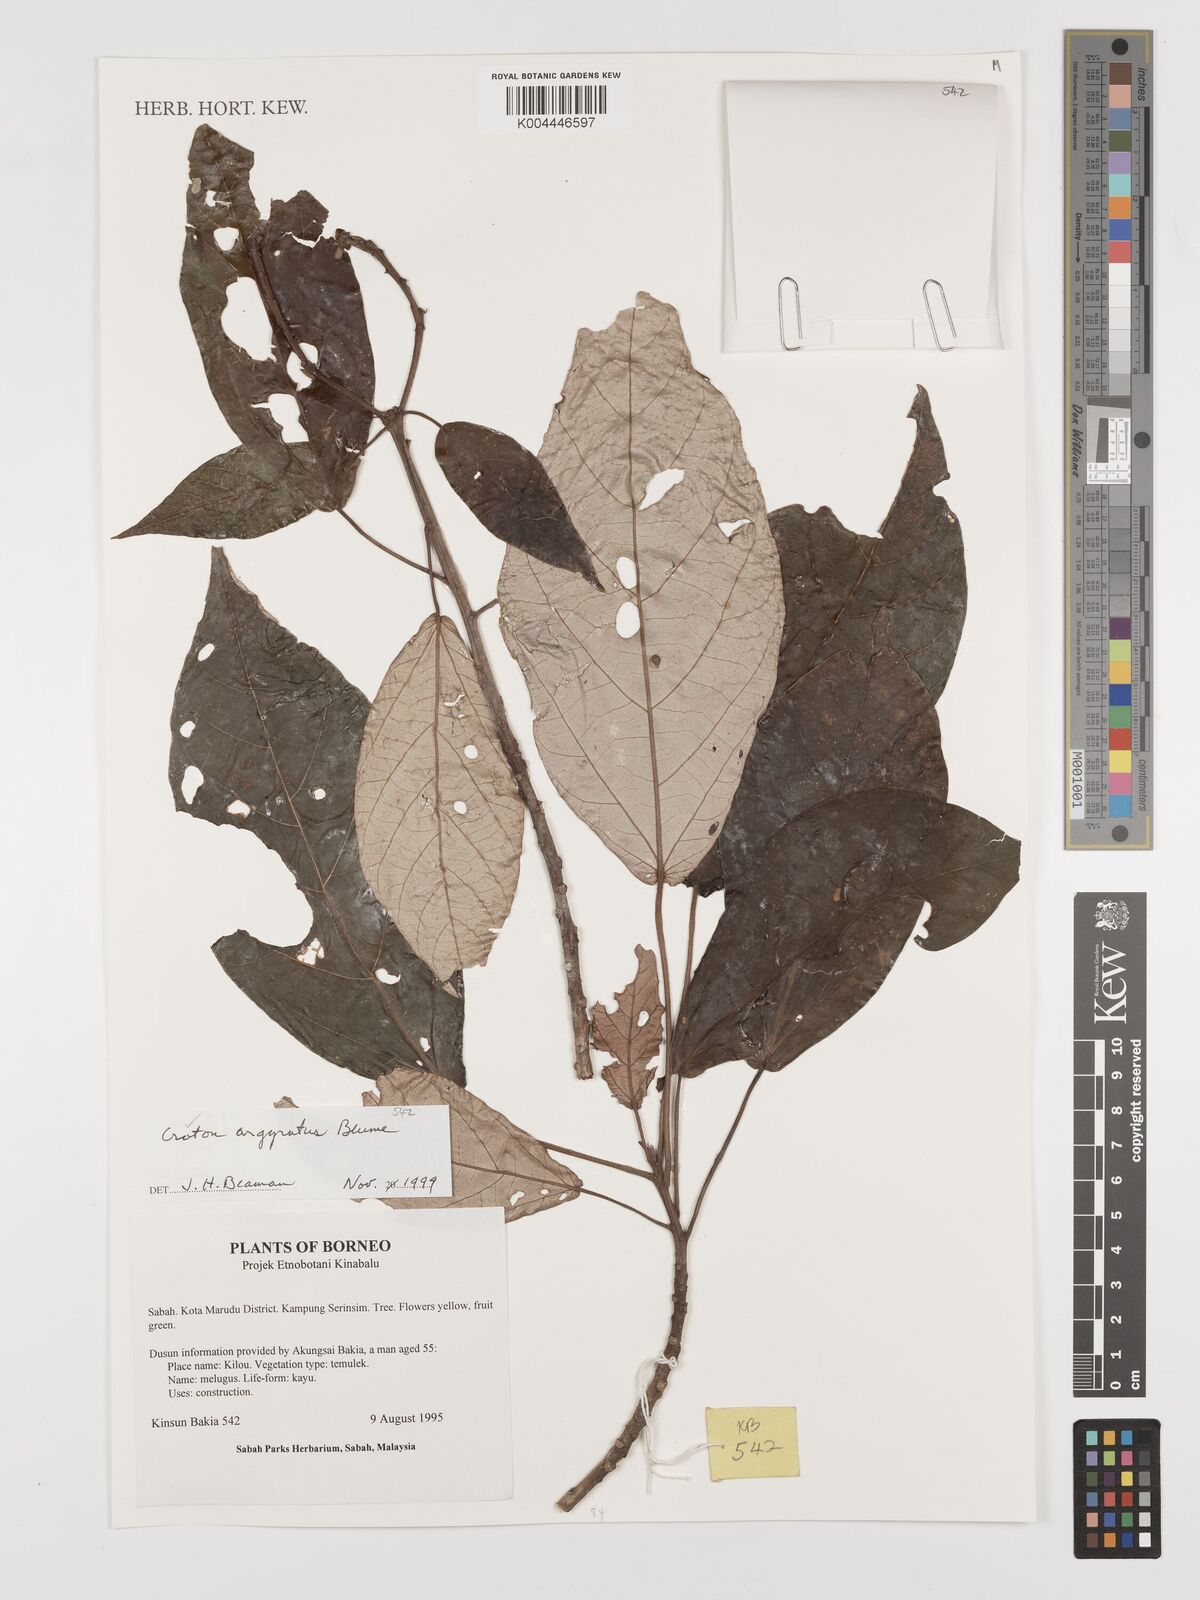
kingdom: Plantae
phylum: Tracheophyta
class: Magnoliopsida
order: Malpighiales
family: Euphorbiaceae
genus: Croton
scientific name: Croton argyratus
